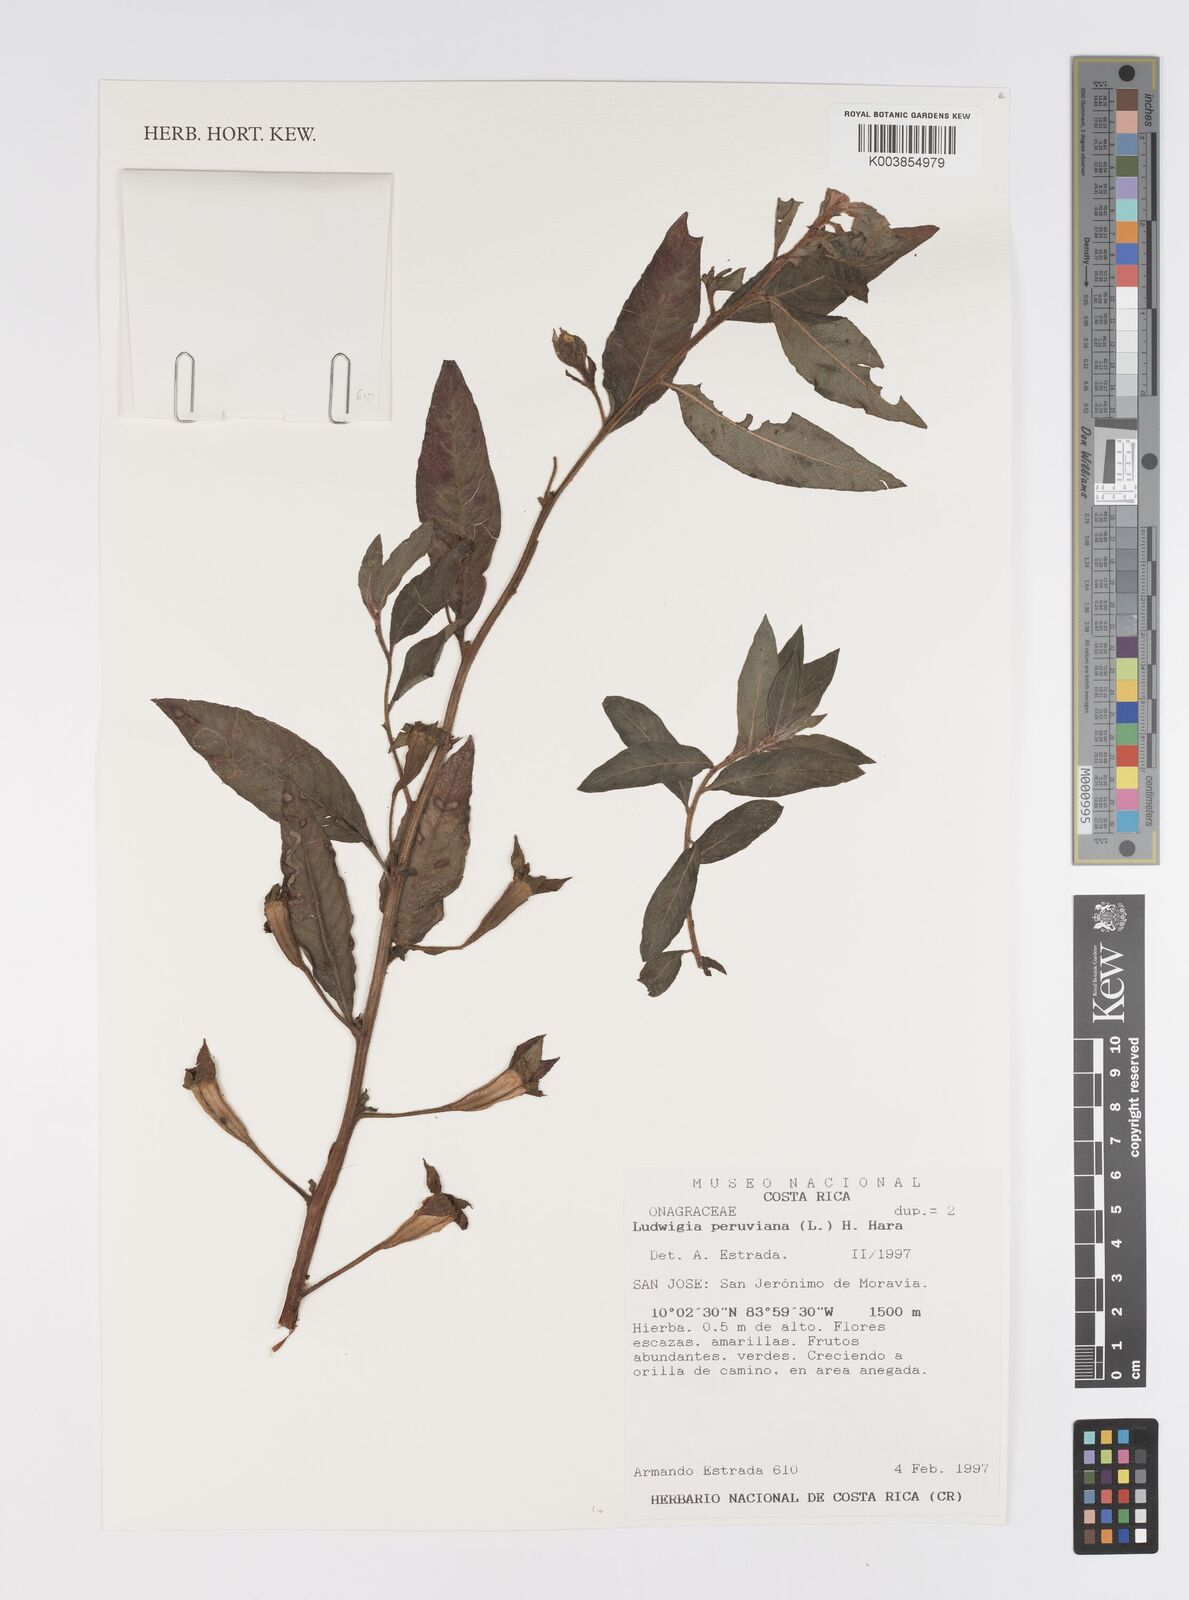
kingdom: Plantae
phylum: Tracheophyta
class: Magnoliopsida
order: Myrtales
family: Onagraceae
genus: Ludwigia
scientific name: Ludwigia peruviana
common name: Peruvian primrose-willow
